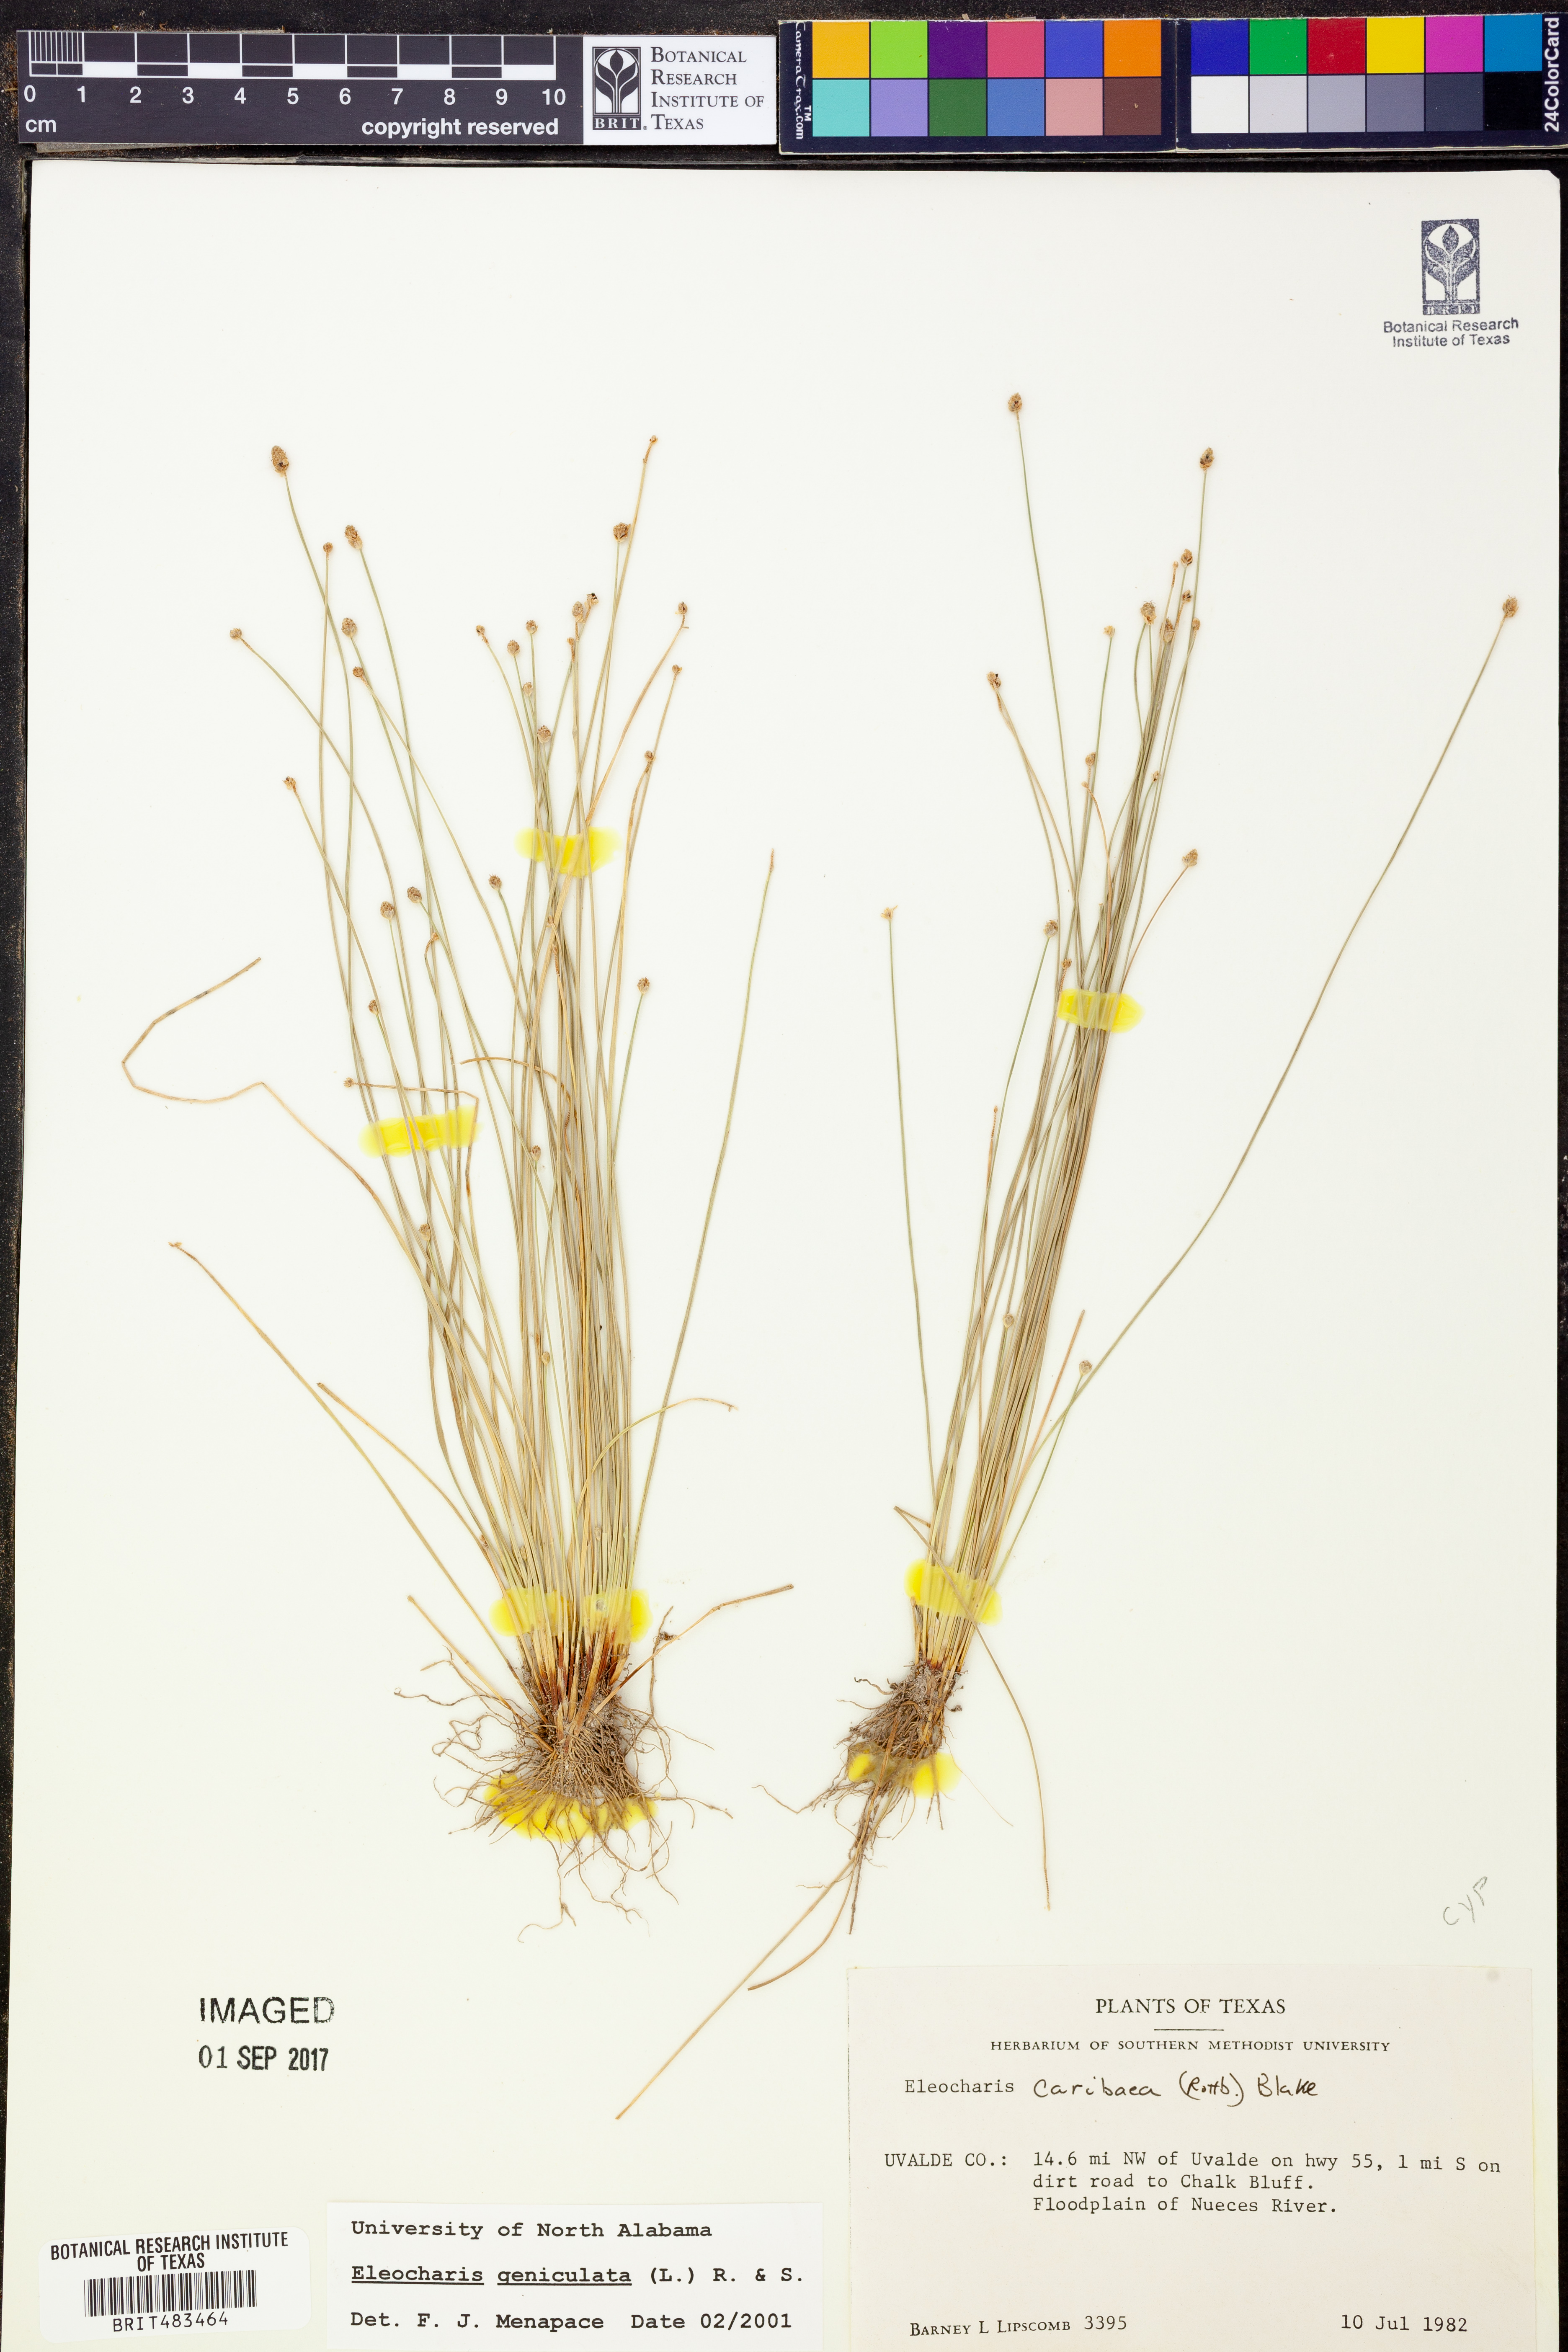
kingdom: Plantae
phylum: Tracheophyta
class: Liliopsida
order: Poales
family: Cyperaceae
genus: Eleocharis
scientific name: Eleocharis geniculata
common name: Canada spikesedge
